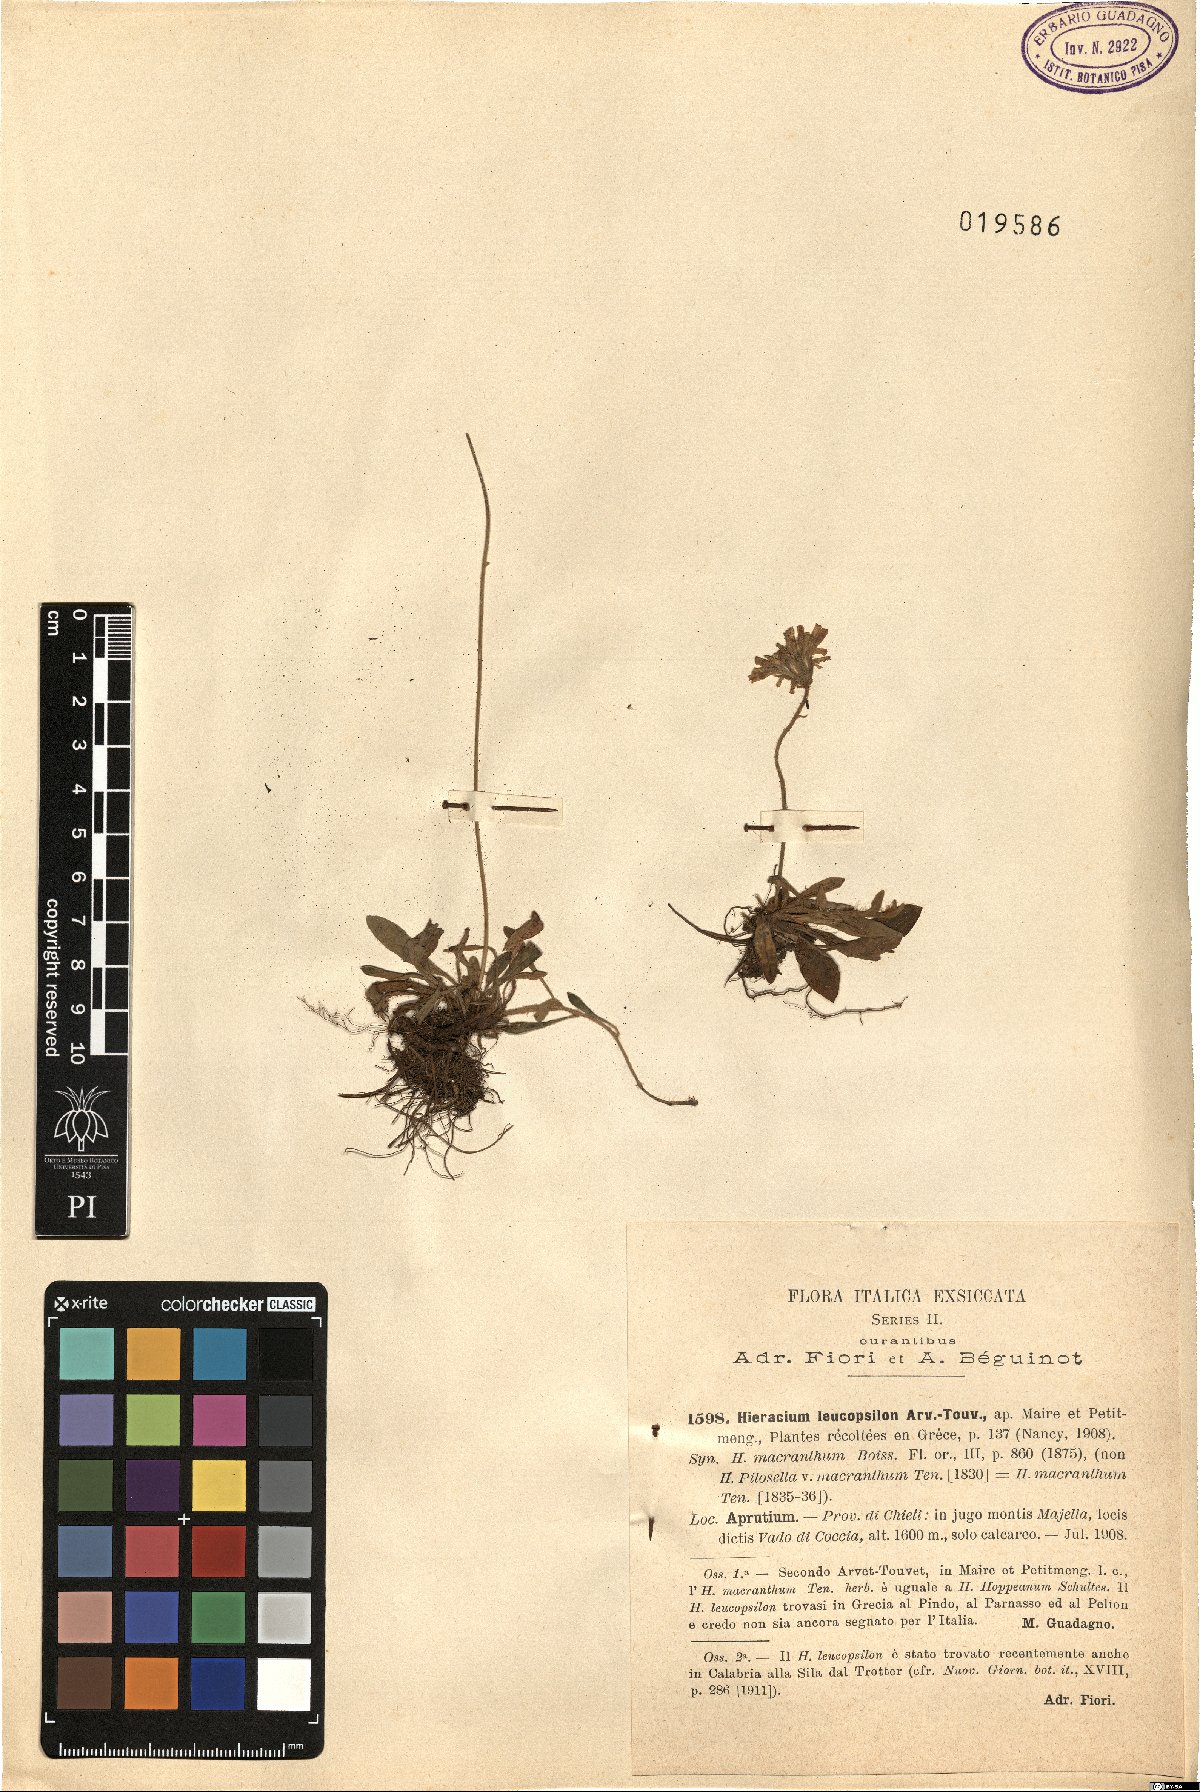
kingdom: Plantae
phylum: Tracheophyta
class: Magnoliopsida
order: Asterales
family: Asteraceae
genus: Pilosella
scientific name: Pilosella leucopsilon
